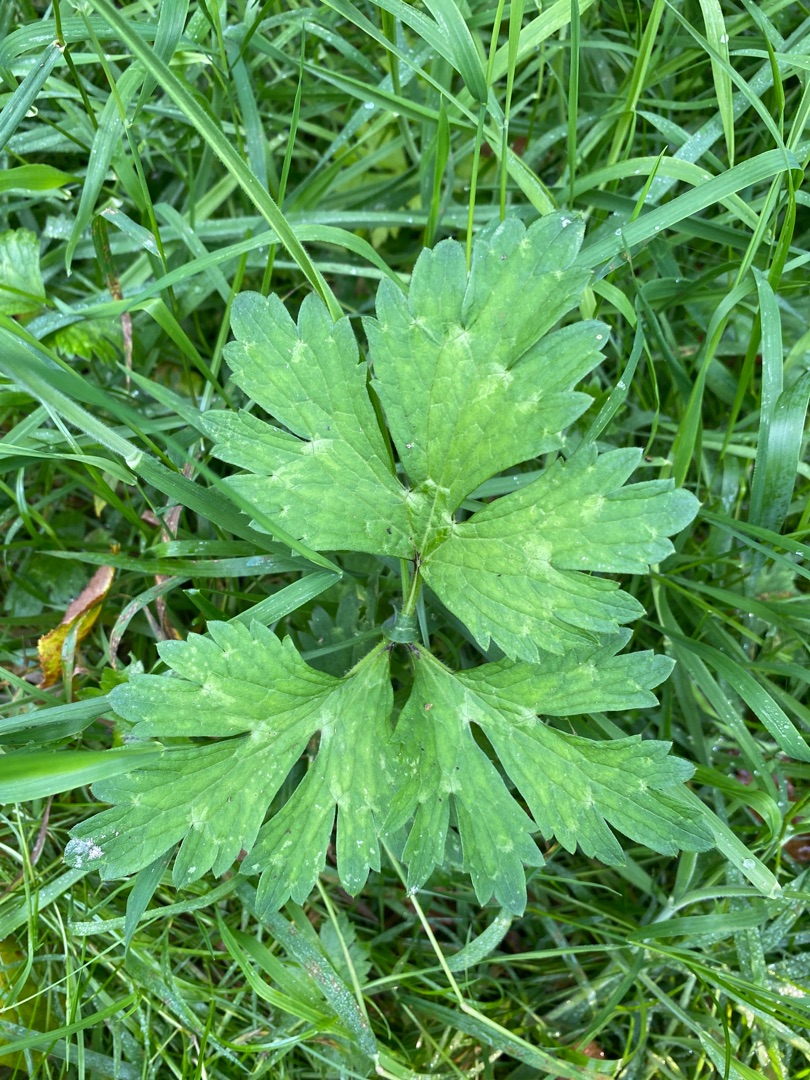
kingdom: Plantae
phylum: Tracheophyta
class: Magnoliopsida
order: Ranunculales
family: Ranunculaceae
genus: Ranunculus
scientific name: Ranunculus repens
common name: Lav ranunkel
